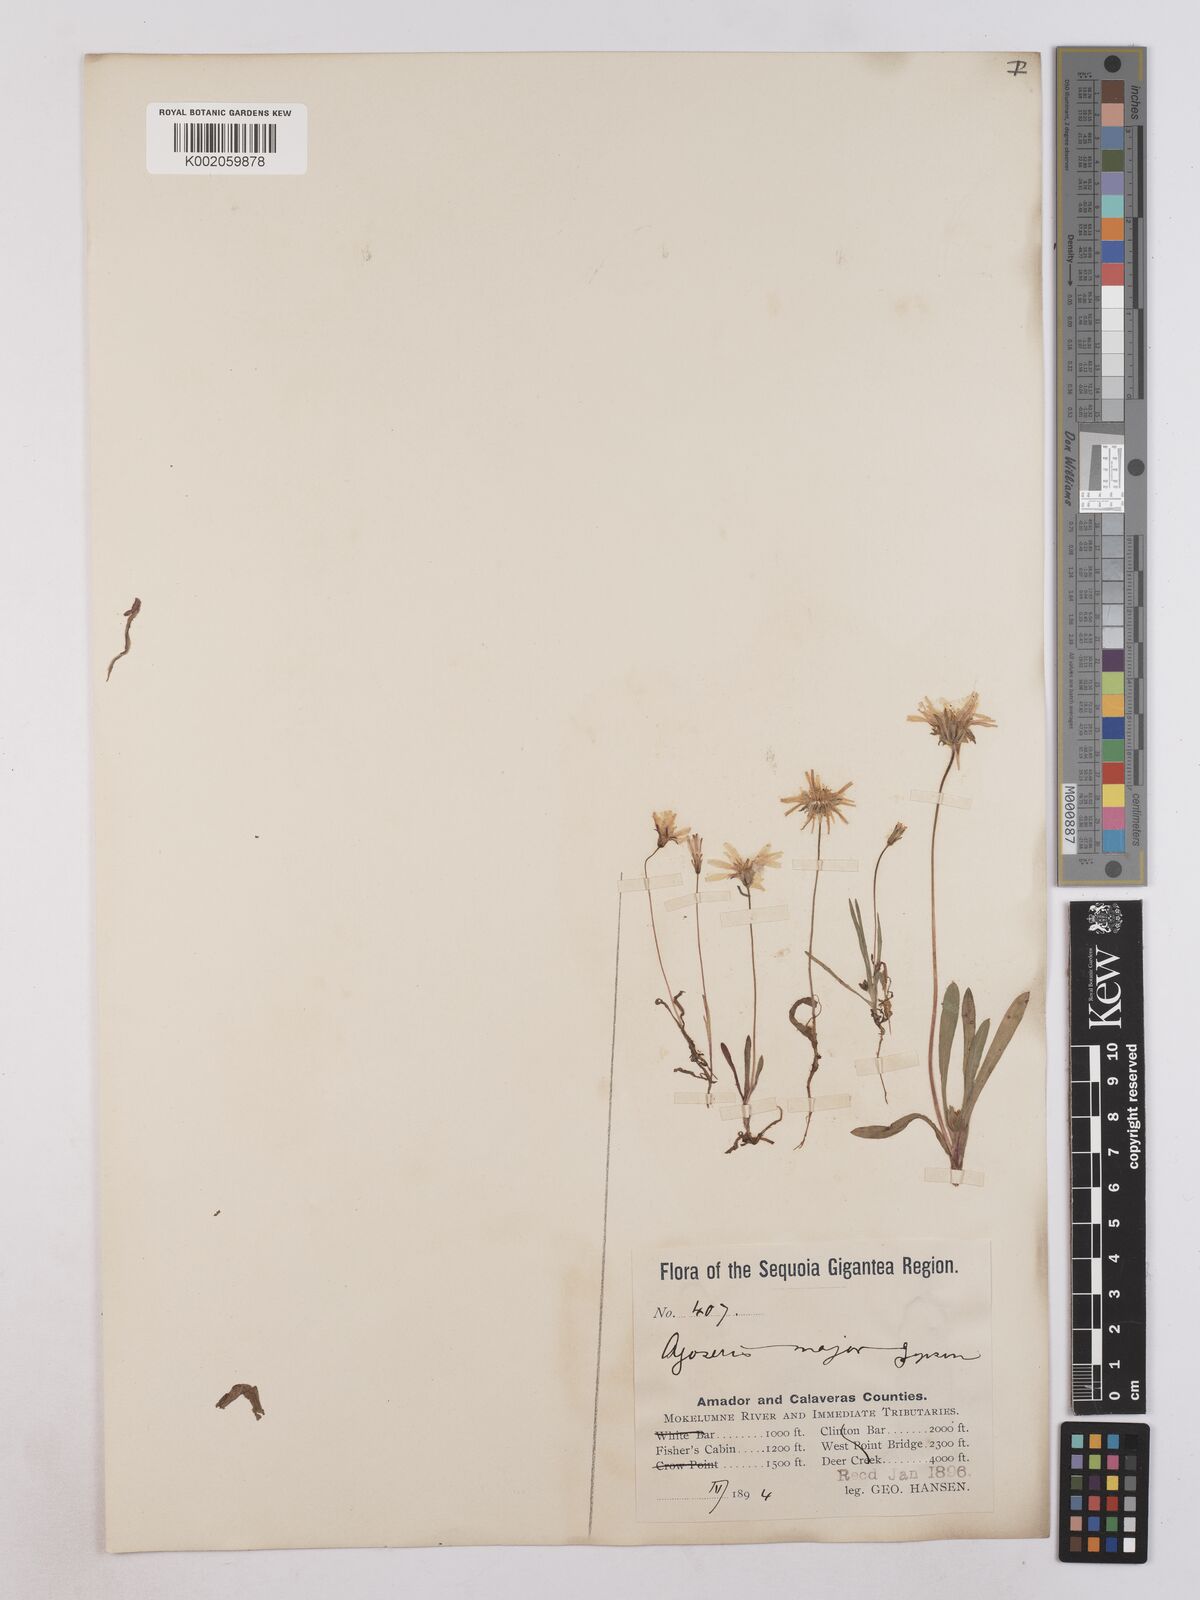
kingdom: Plantae
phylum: Tracheophyta
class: Magnoliopsida
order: Asterales
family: Asteraceae
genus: Agoseris
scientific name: Agoseris heterophylla
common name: Annual agoseris
